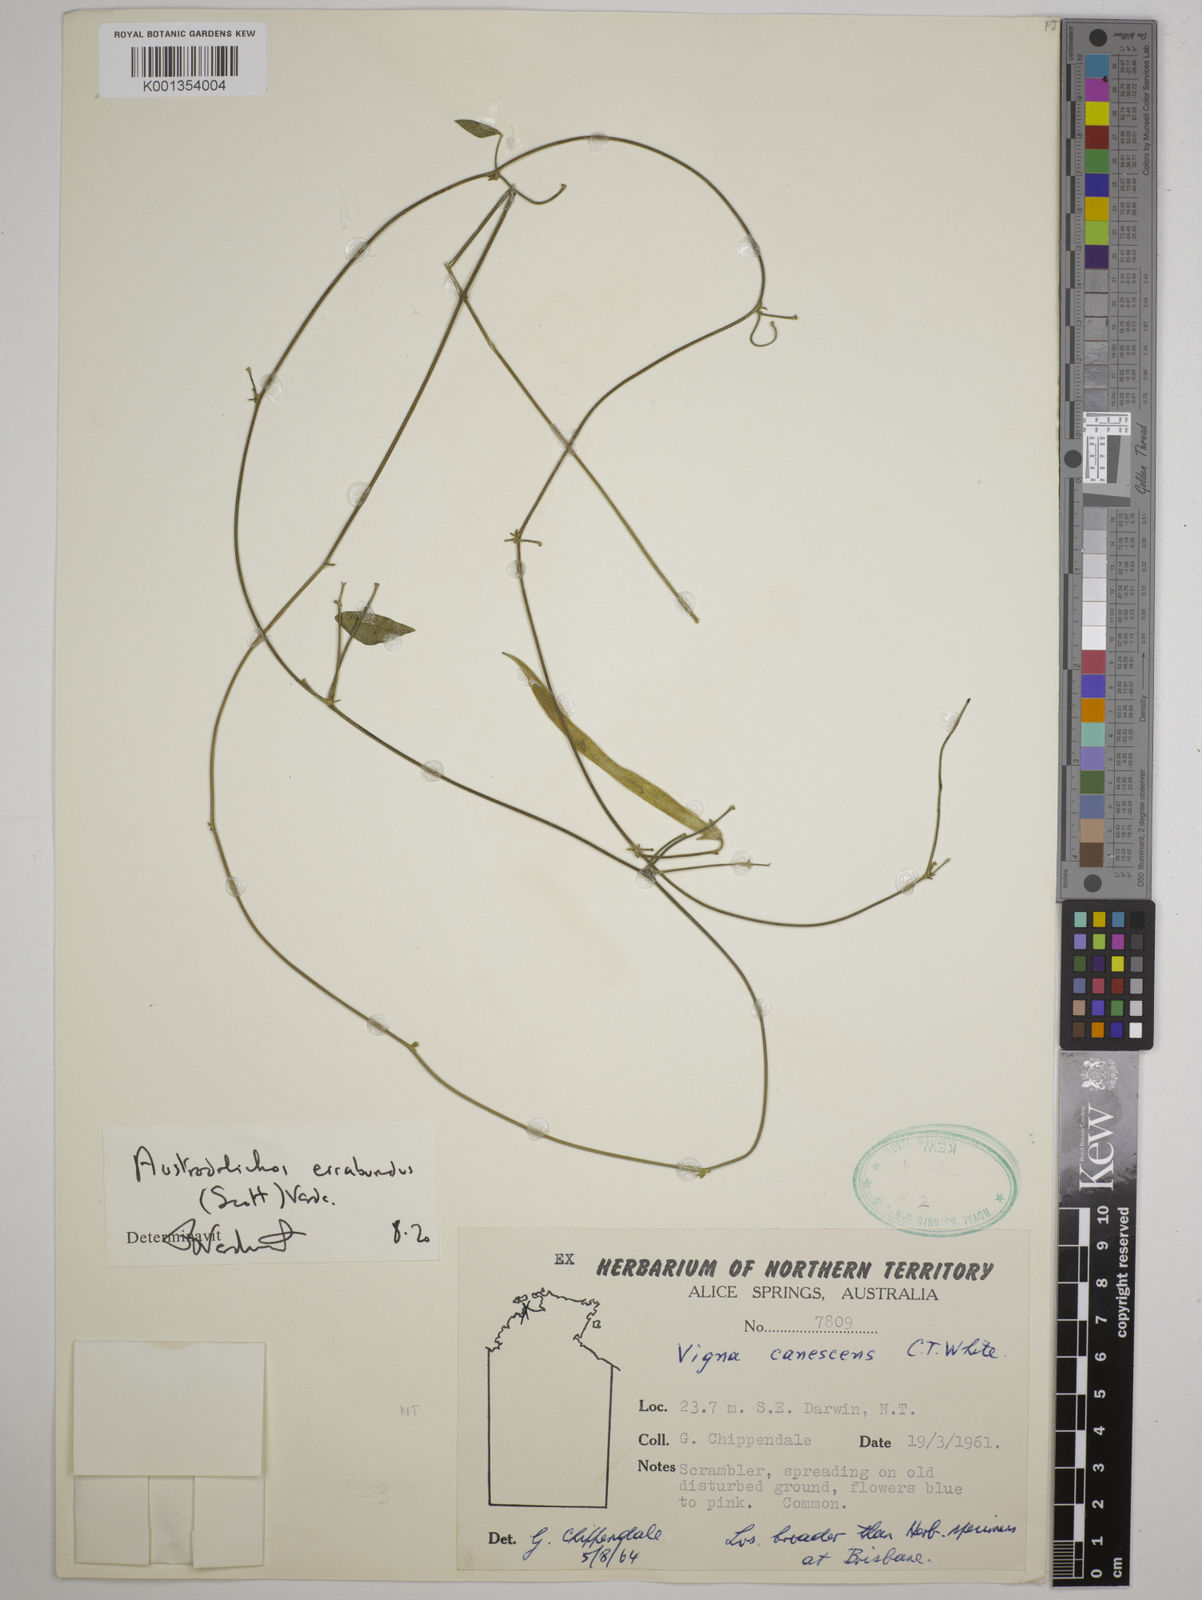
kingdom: Plantae
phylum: Tracheophyta
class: Magnoliopsida
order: Fabales
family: Fabaceae
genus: Austrodolichos
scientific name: Austrodolichos errabundus
